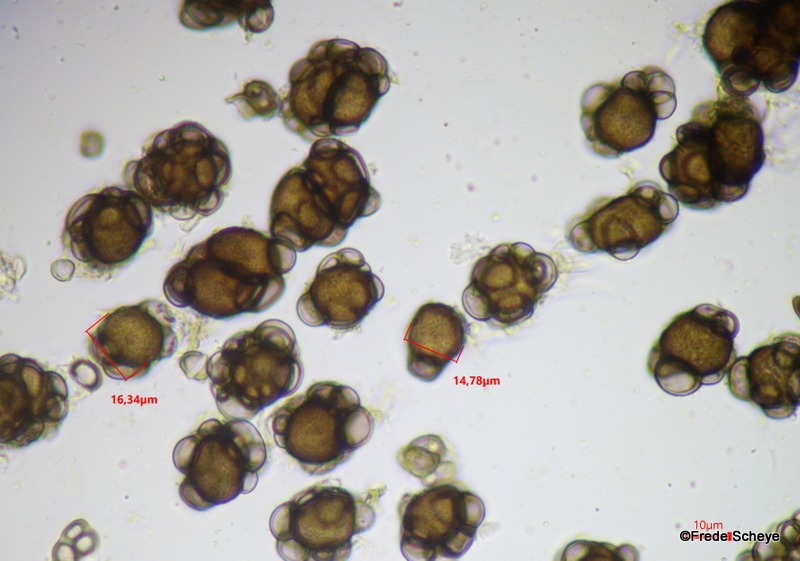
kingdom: Fungi
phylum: Basidiomycota
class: Ustilaginomycetes
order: Urocystidales
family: Urocystidaceae
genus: Urocystis
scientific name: Urocystis ficariae
